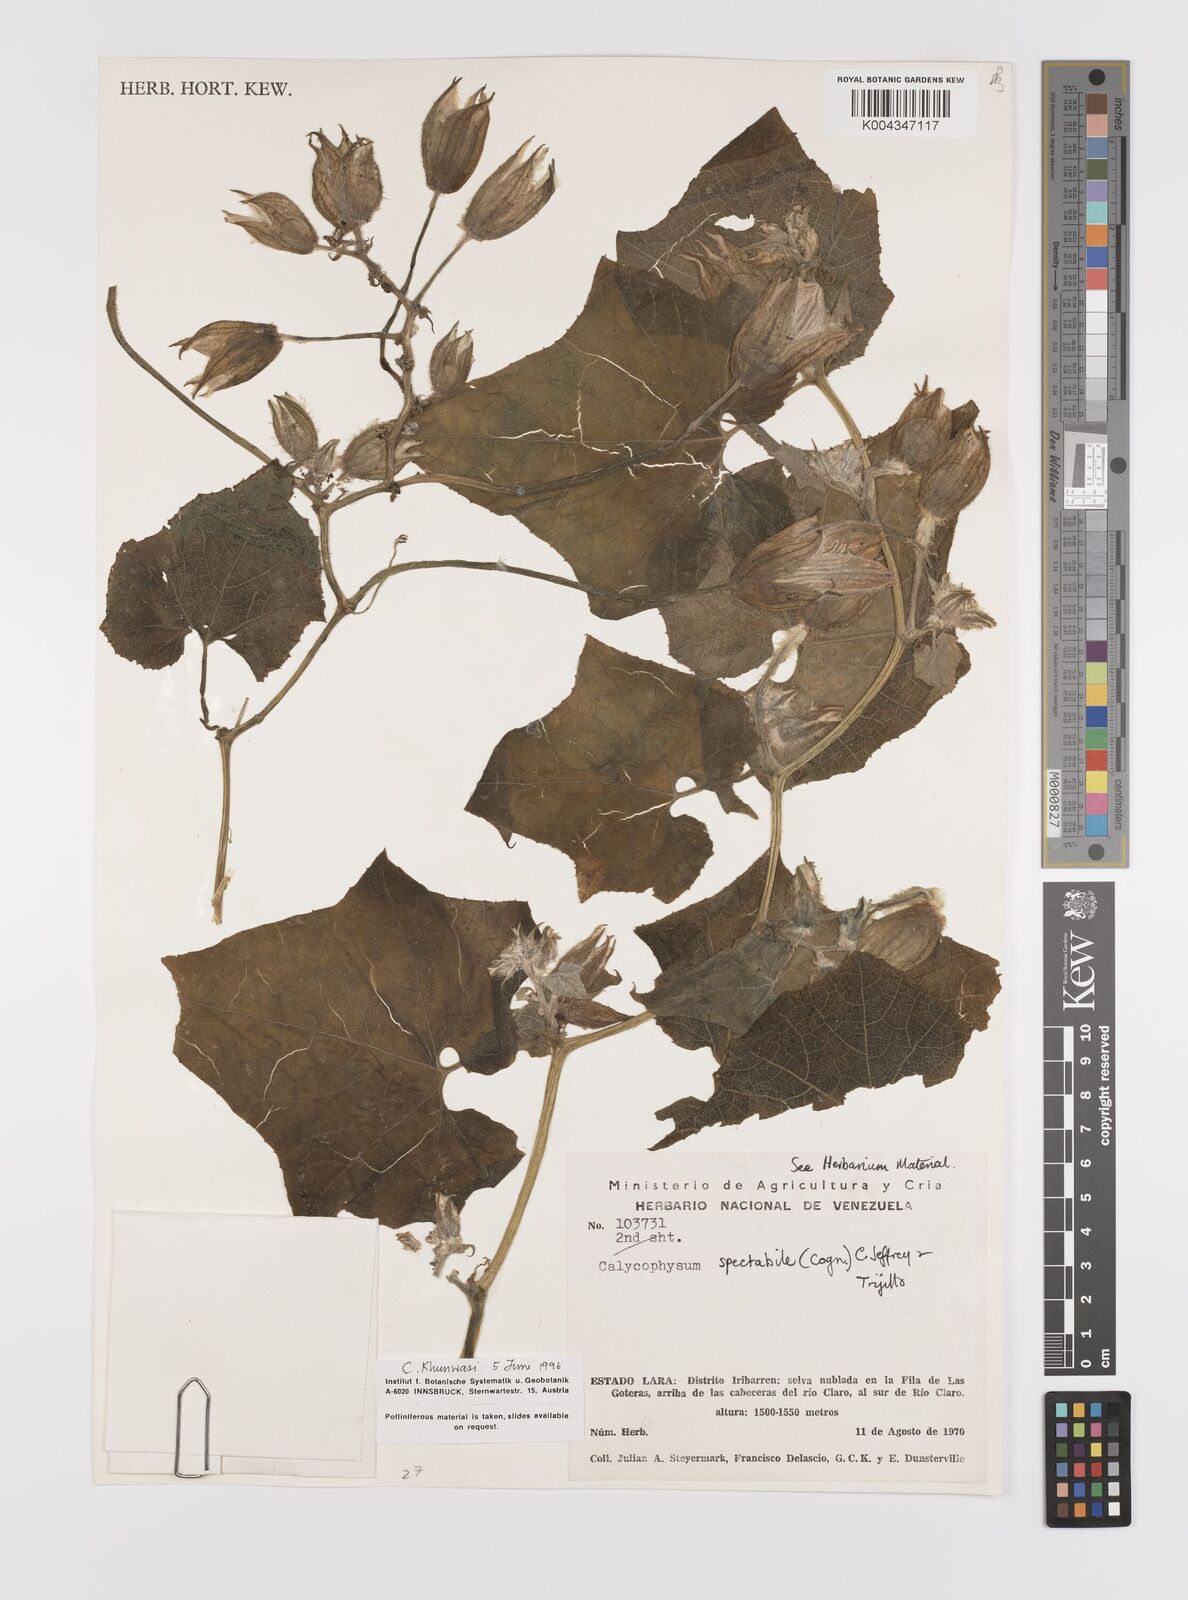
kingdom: Plantae
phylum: Tracheophyta
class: Magnoliopsida
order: Cucurbitales
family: Cucurbitaceae
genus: Calycophysum
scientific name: Calycophysum spectabile
